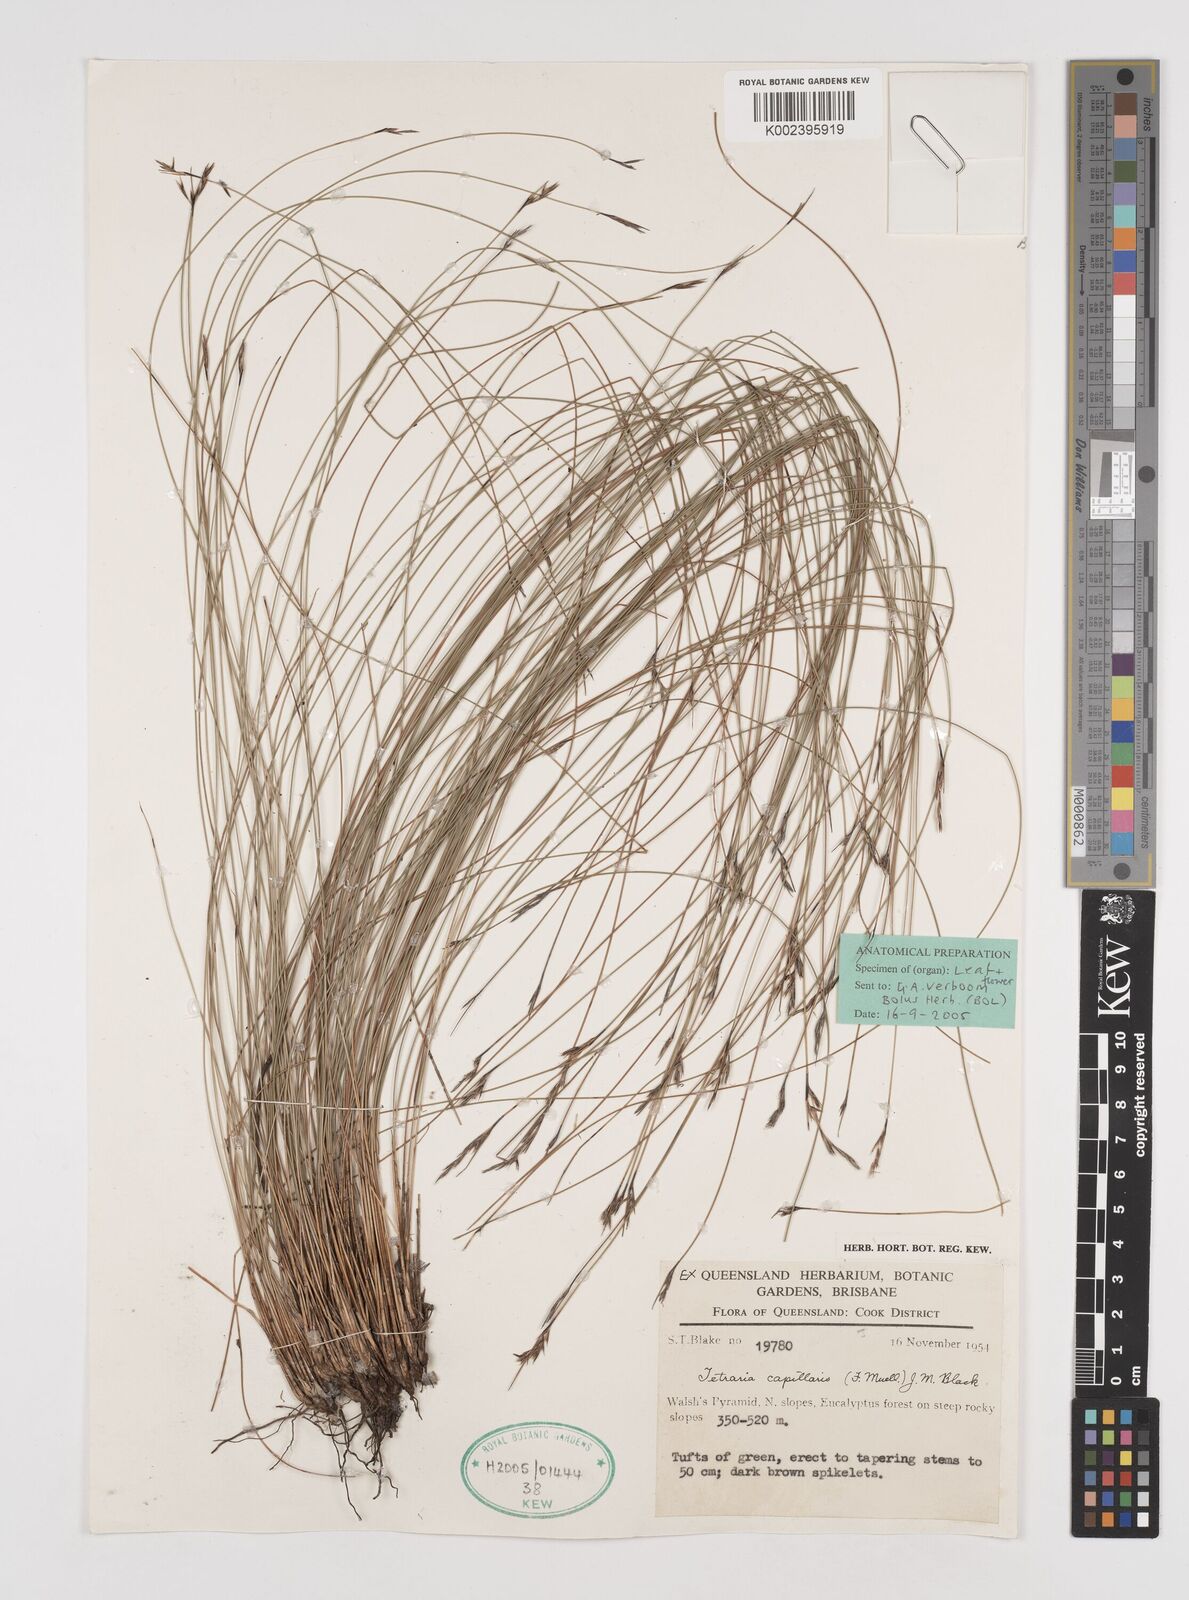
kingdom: Plantae
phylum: Tracheophyta
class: Liliopsida
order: Poales
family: Cyperaceae
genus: Tetraria
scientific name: Tetraria capillaris
